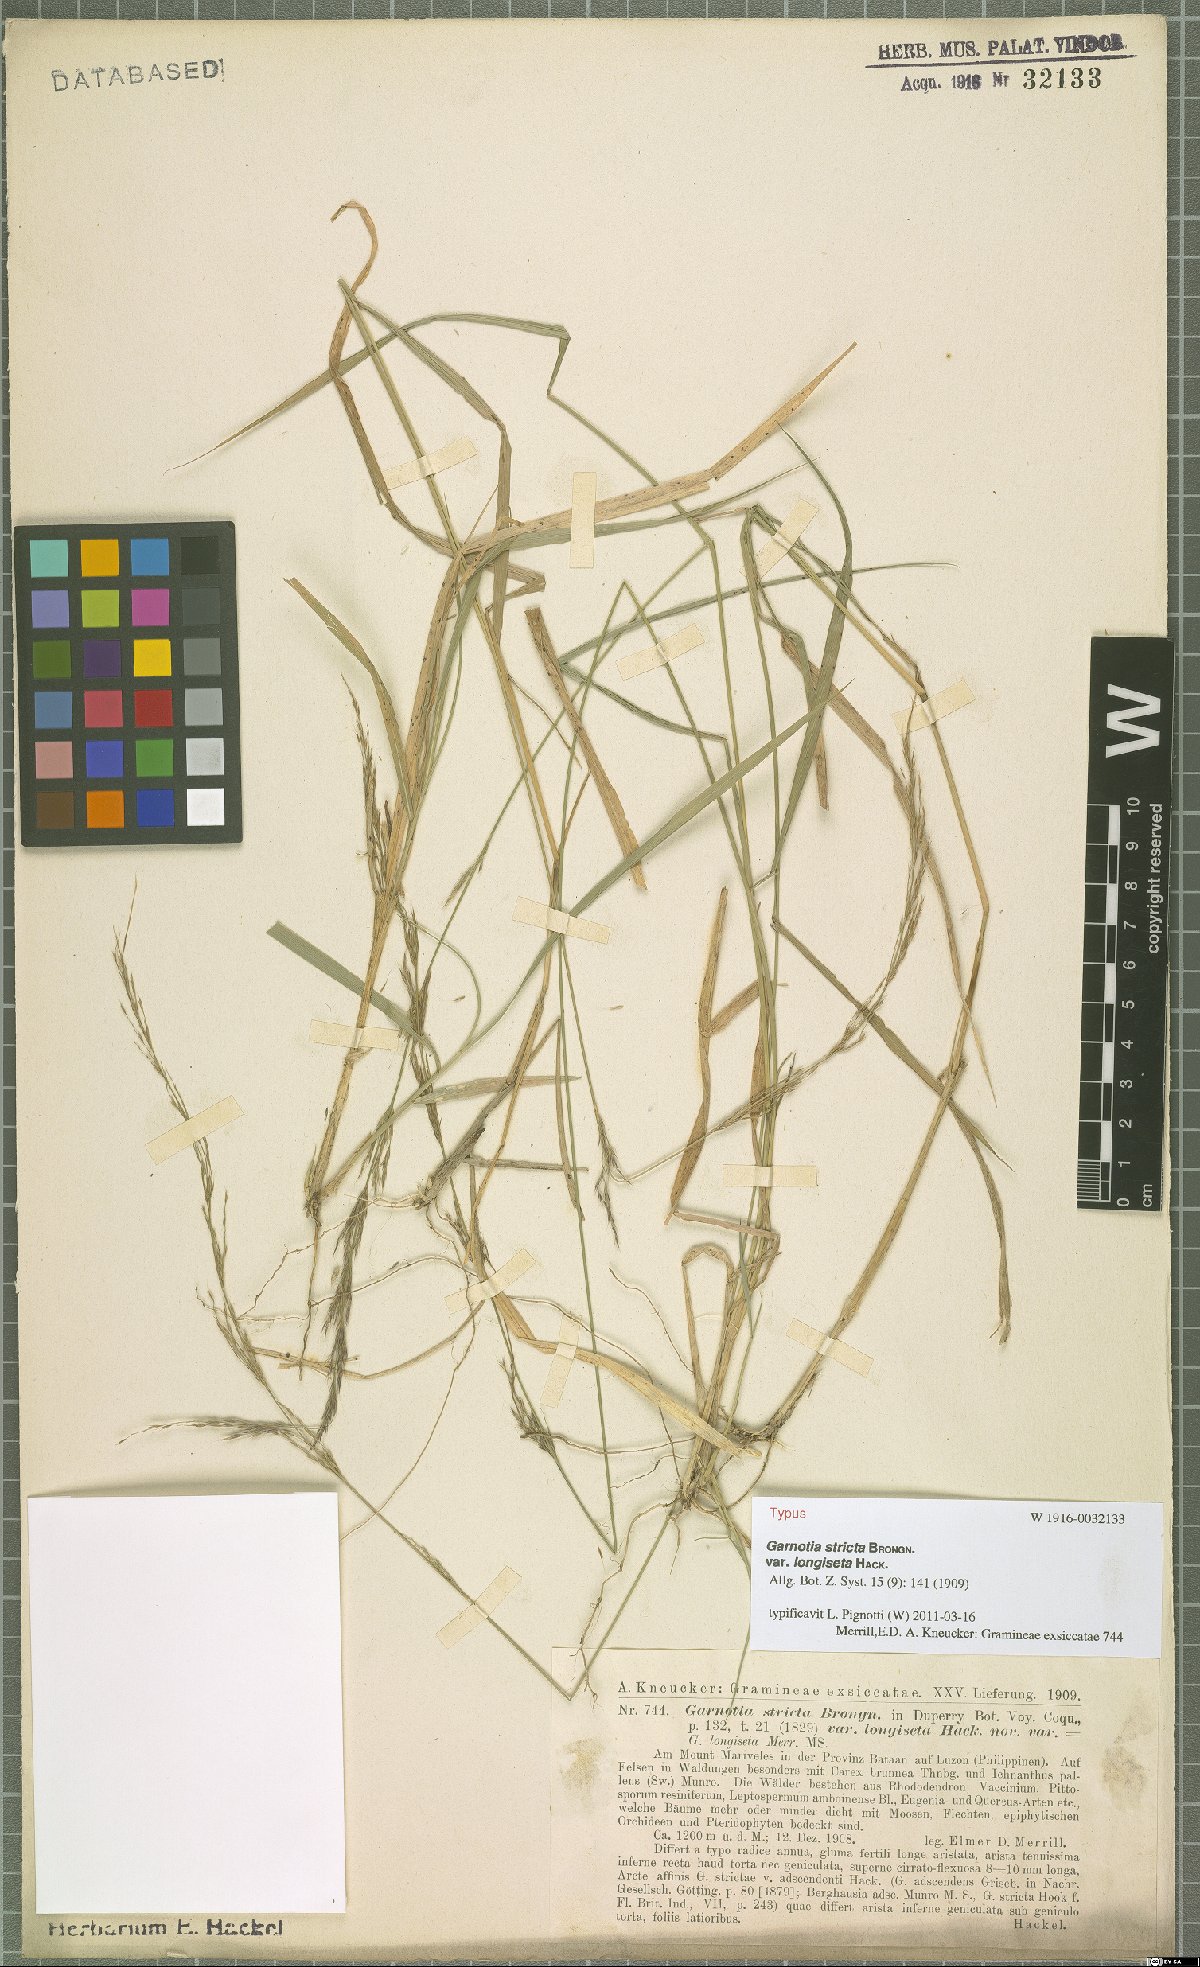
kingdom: Plantae
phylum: Tracheophyta
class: Liliopsida
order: Poales
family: Poaceae
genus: Garnotia
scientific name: Garnotia stricta
